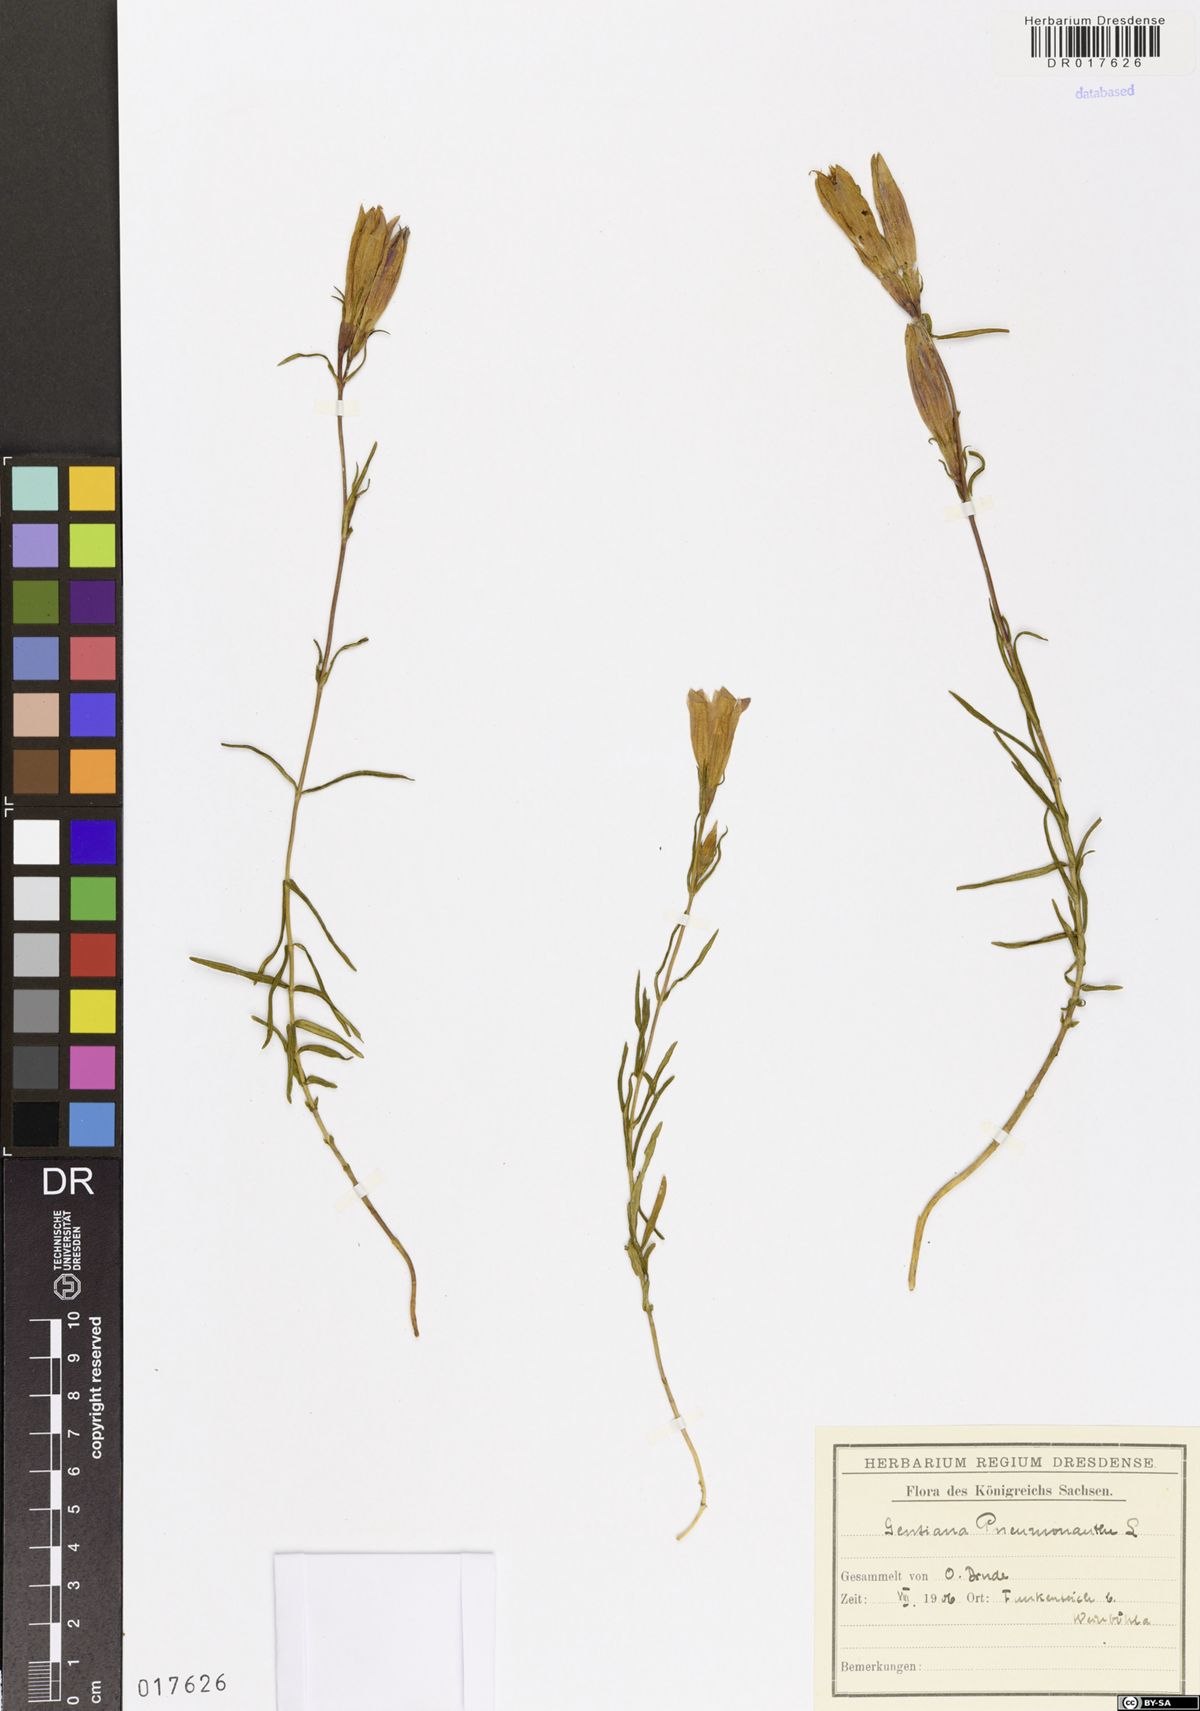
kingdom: Plantae
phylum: Tracheophyta
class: Magnoliopsida
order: Gentianales
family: Gentianaceae
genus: Gentiana
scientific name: Gentiana pneumonanthe
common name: Marsh gentian
